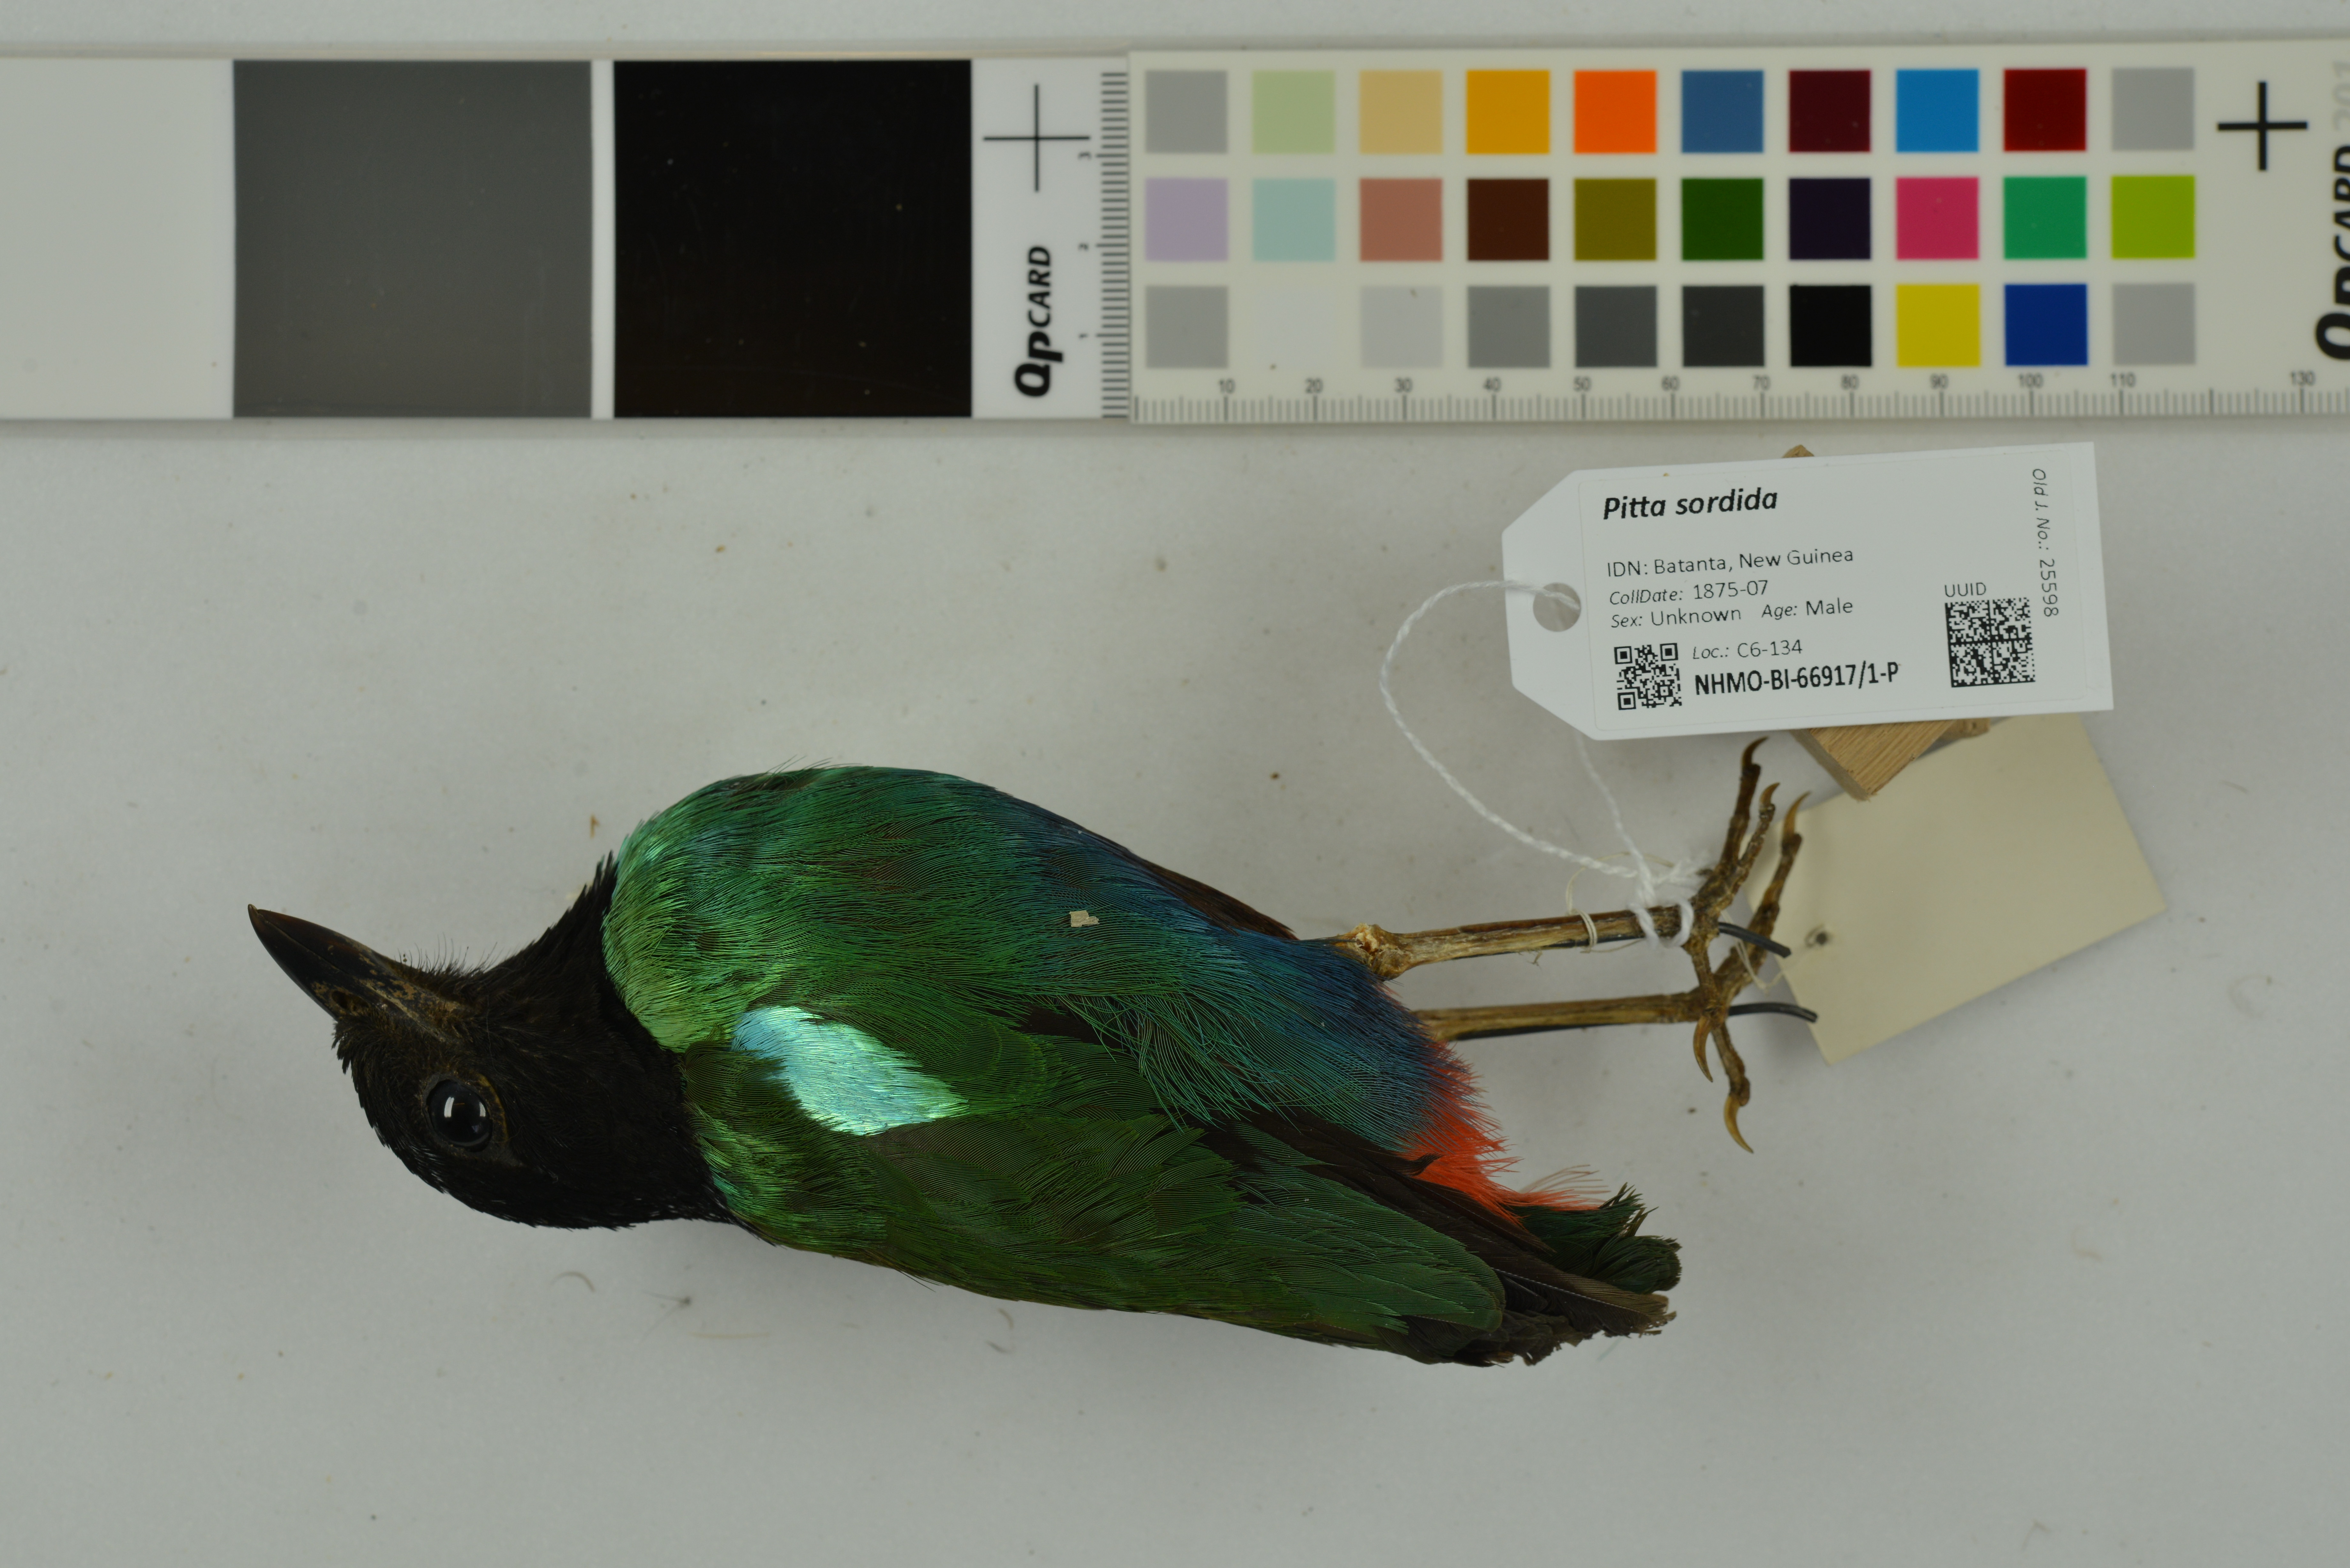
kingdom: Animalia
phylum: Chordata
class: Aves
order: Passeriformes
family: Pittidae
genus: Pitta
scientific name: Pitta sordida
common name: Hooded pitta
